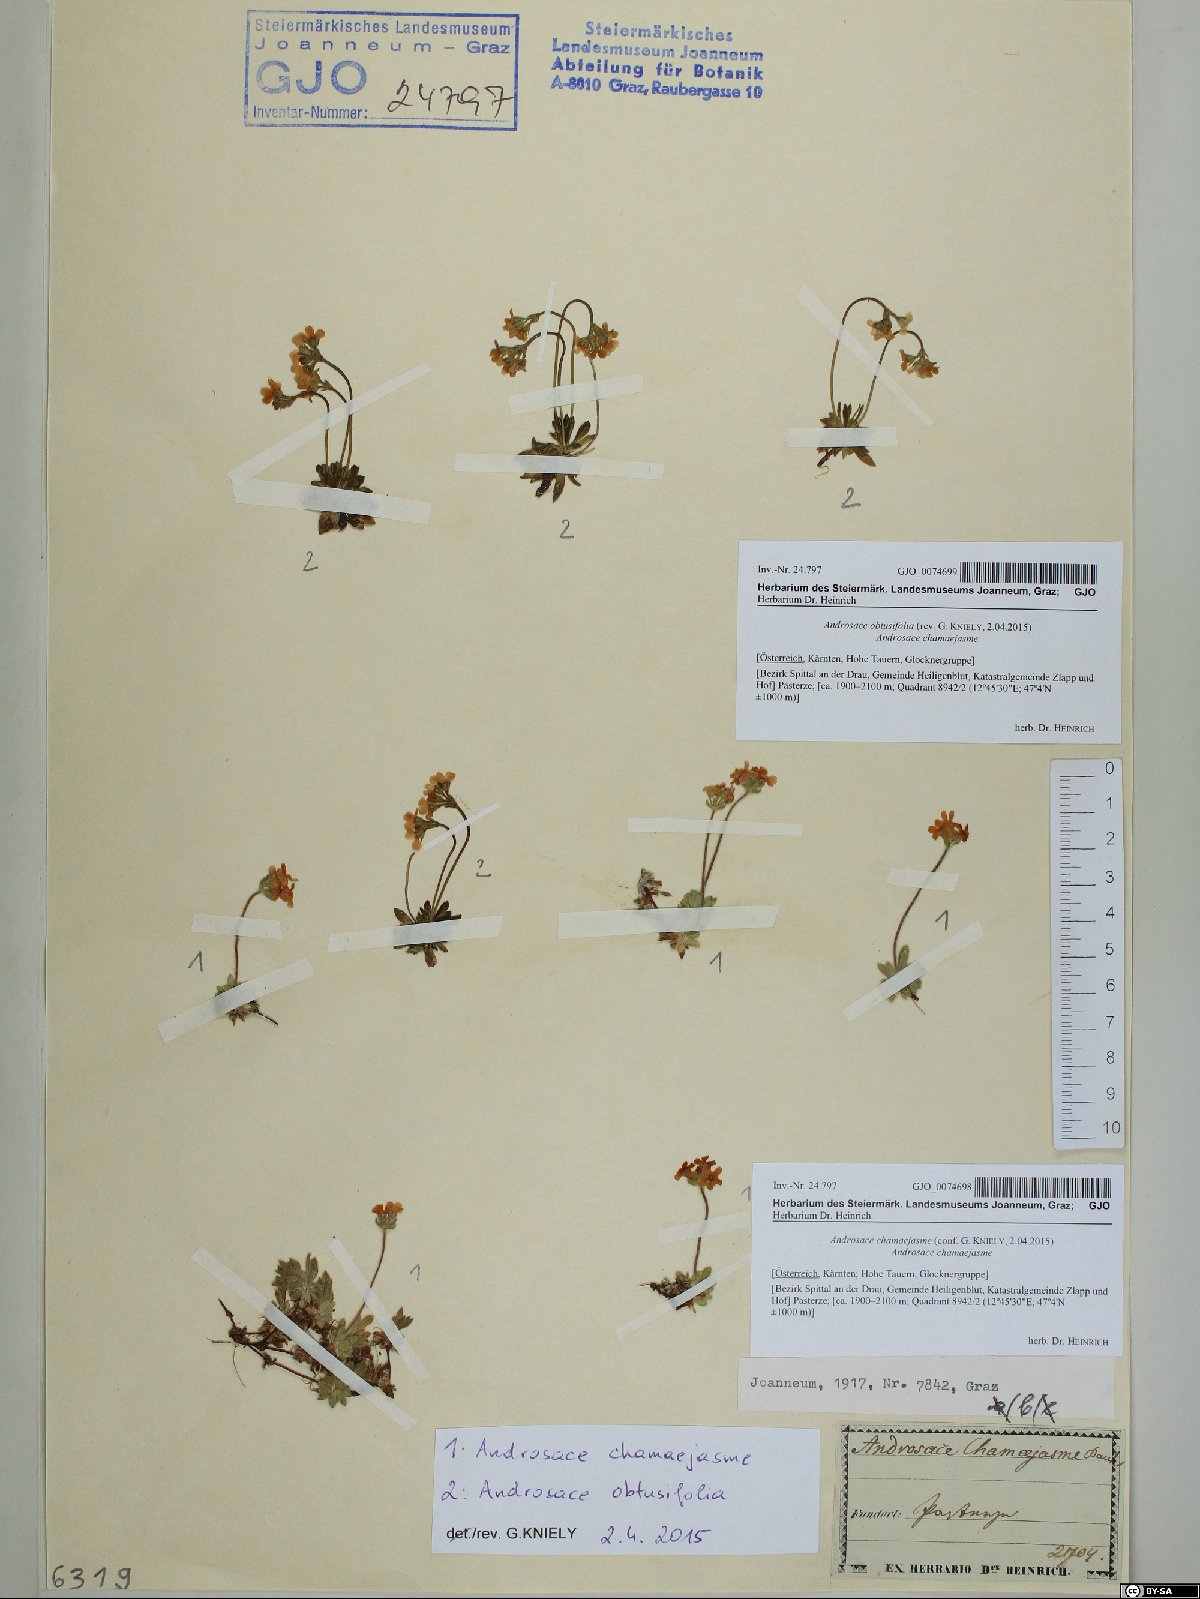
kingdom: Plantae
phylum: Tracheophyta
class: Magnoliopsida
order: Ericales
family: Primulaceae
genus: Androsace
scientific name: Androsace chamaejasme
